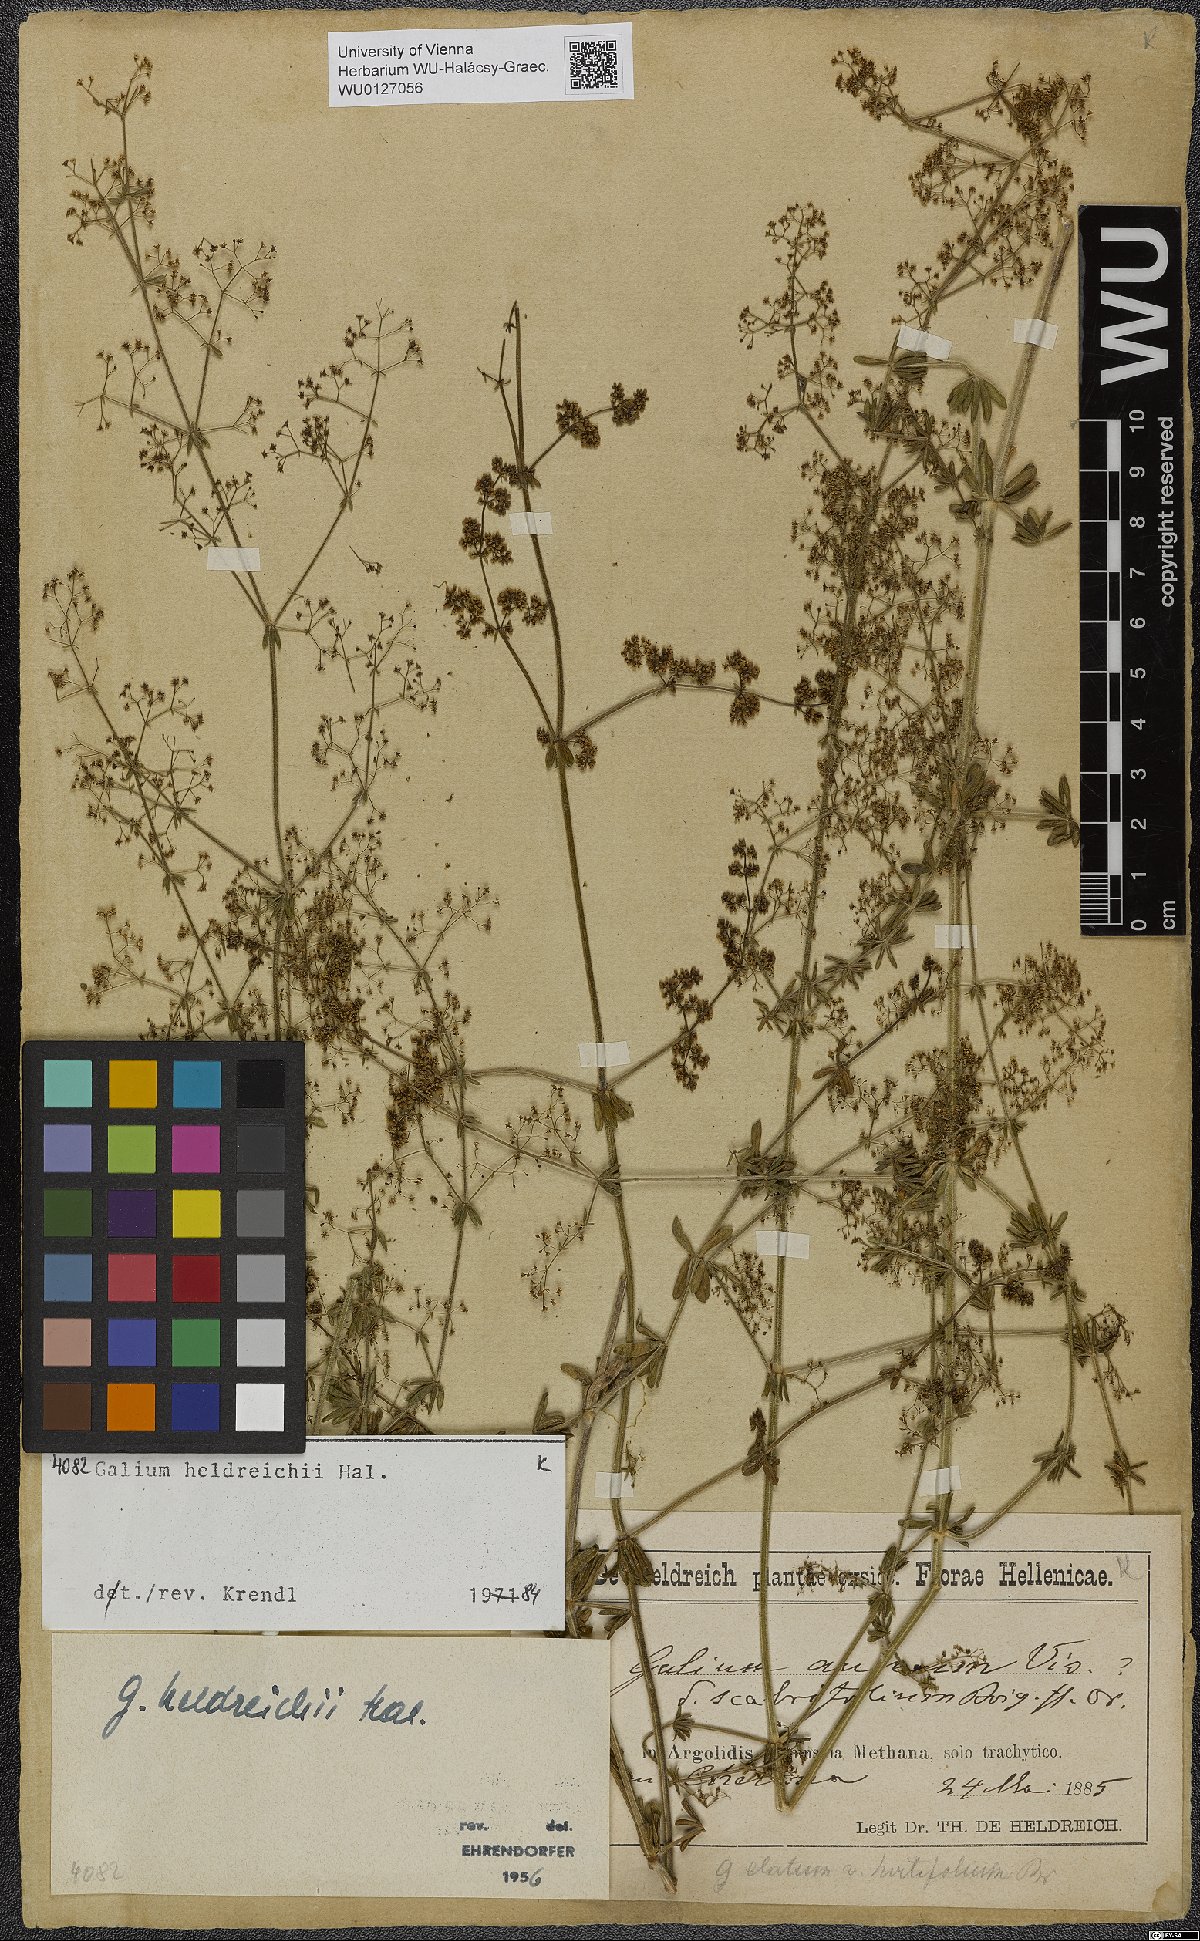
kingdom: Plantae
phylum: Tracheophyta
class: Magnoliopsida
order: Gentianales
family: Rubiaceae
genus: Galium
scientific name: Galium heldreichii
